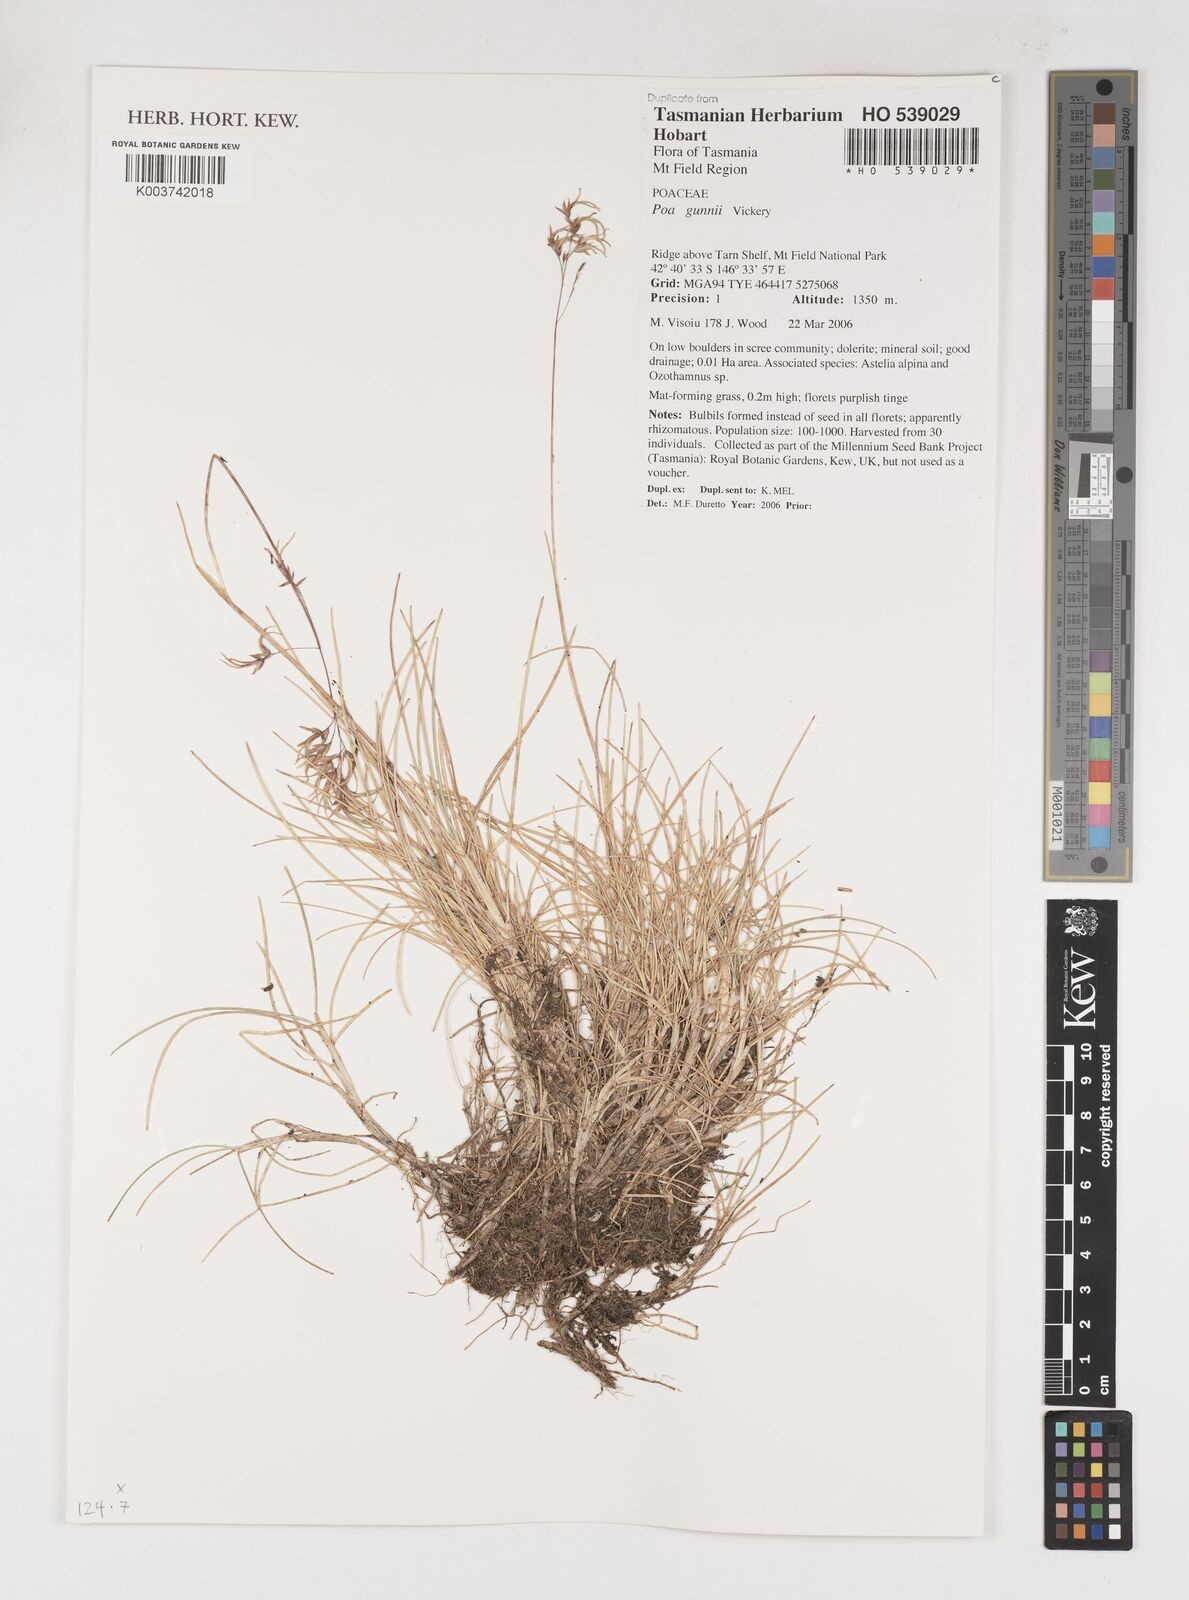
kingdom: Plantae
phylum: Tracheophyta
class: Liliopsida
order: Poales
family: Poaceae
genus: Poa
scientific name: Poa gunnii
